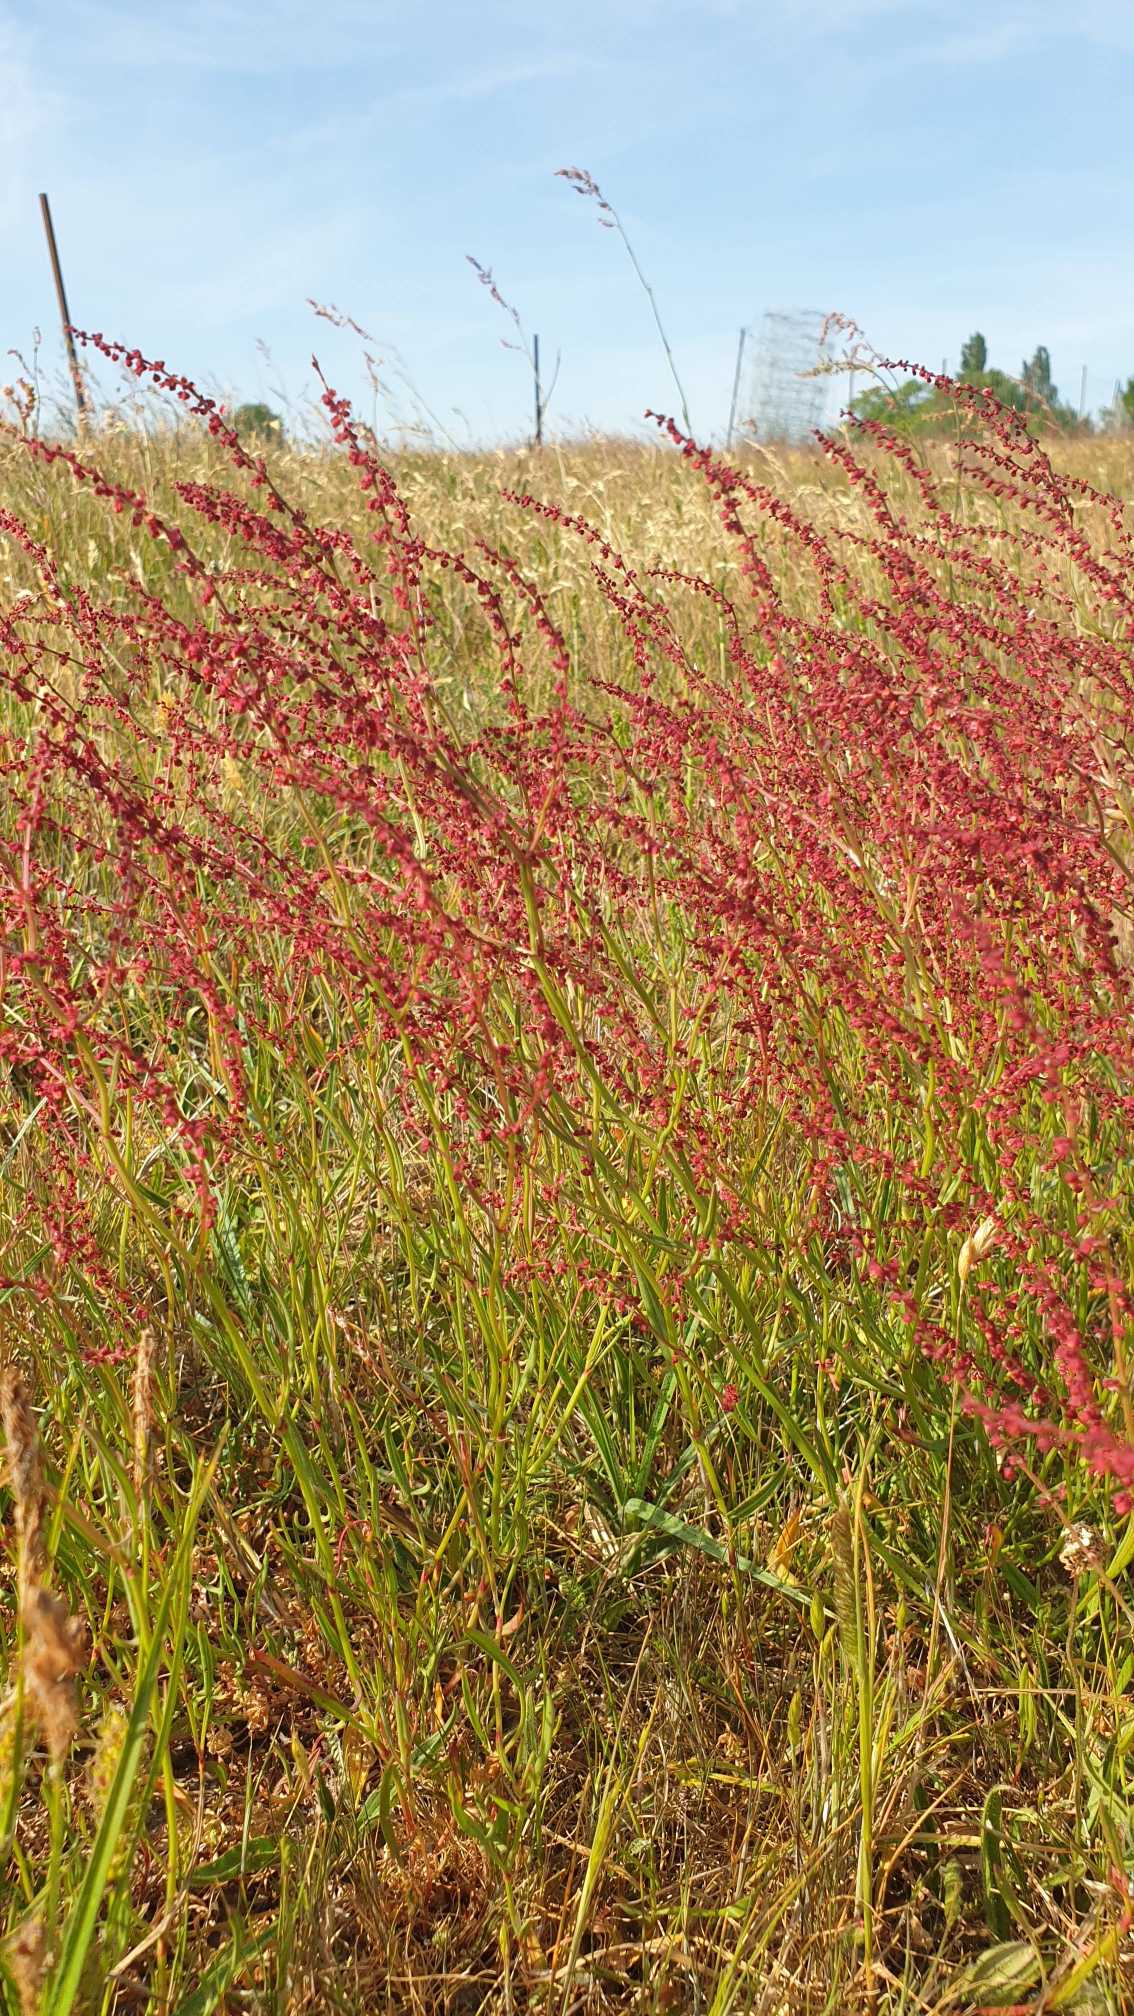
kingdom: Plantae
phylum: Tracheophyta
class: Magnoliopsida
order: Caryophyllales
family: Polygonaceae
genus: Rumex
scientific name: Rumex acetosella
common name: Rødknæ
